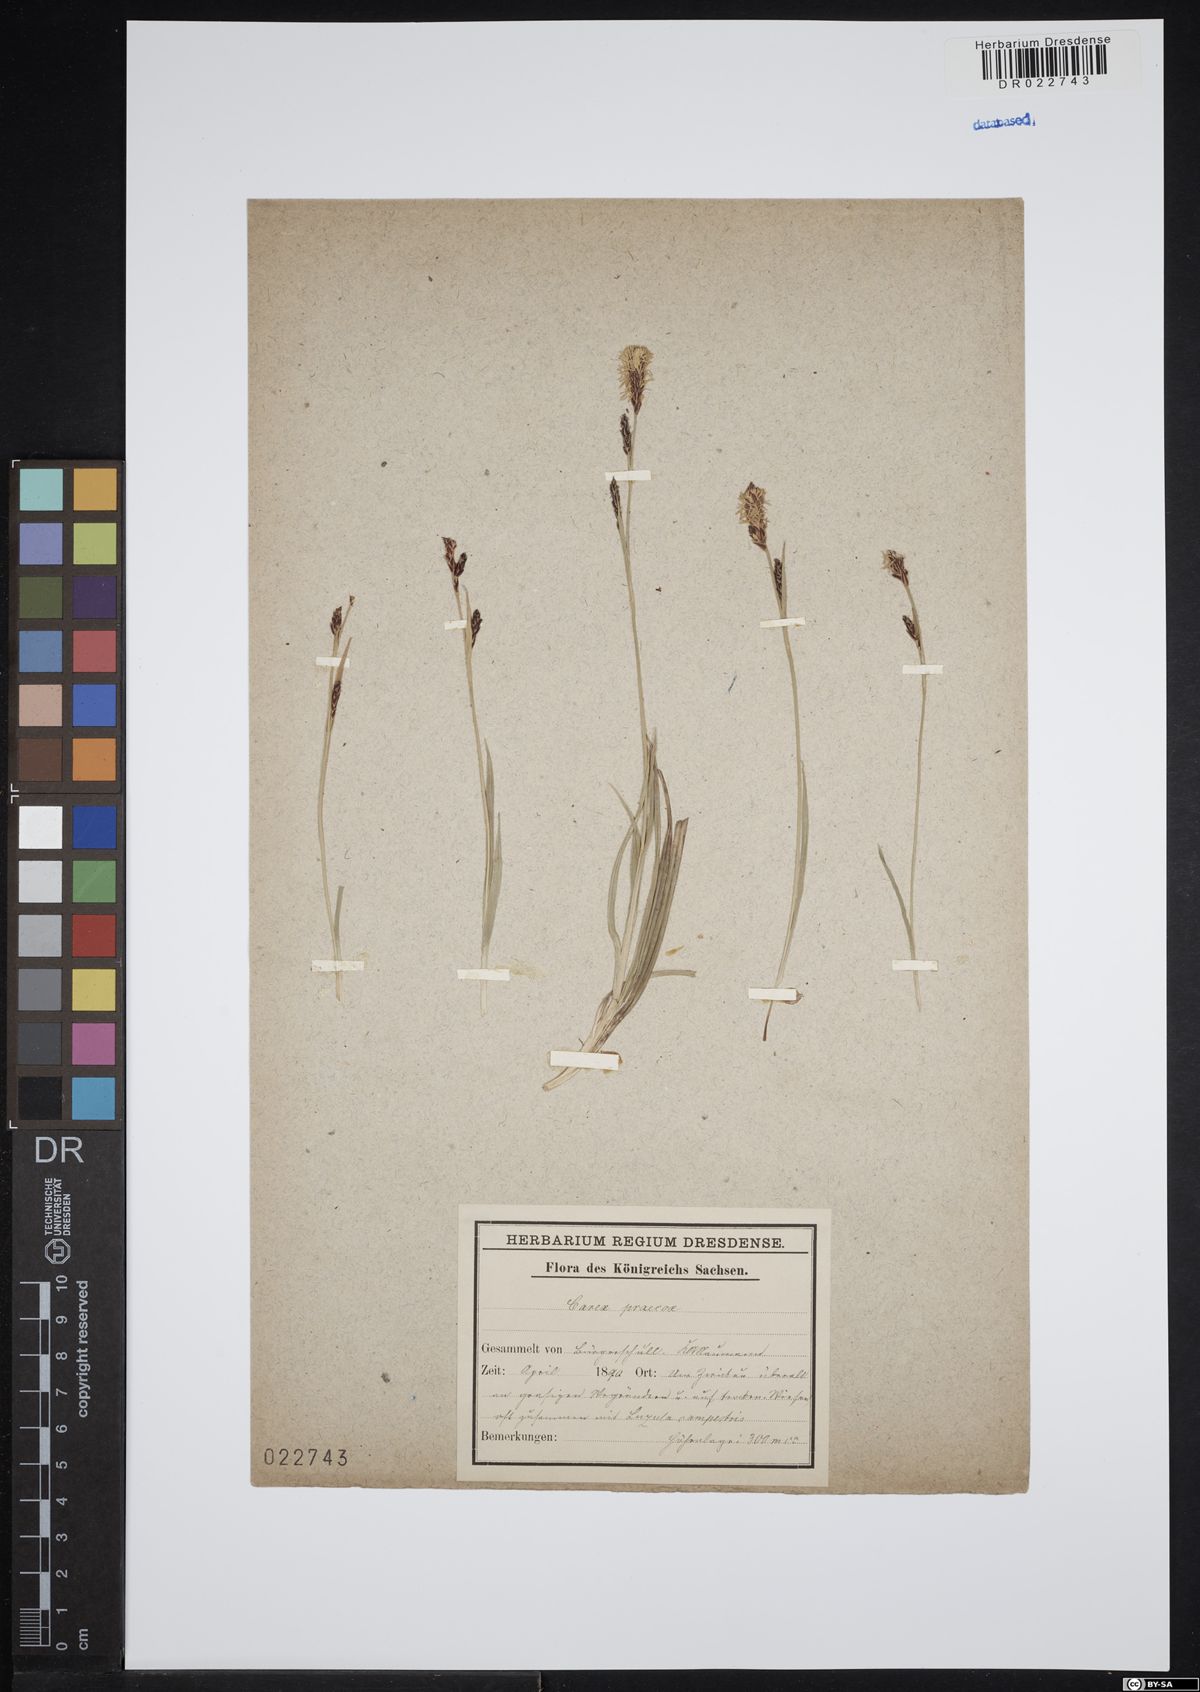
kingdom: Plantae
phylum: Tracheophyta
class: Liliopsida
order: Poales
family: Cyperaceae
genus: Carex
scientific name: Carex praecox
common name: Early sedge
